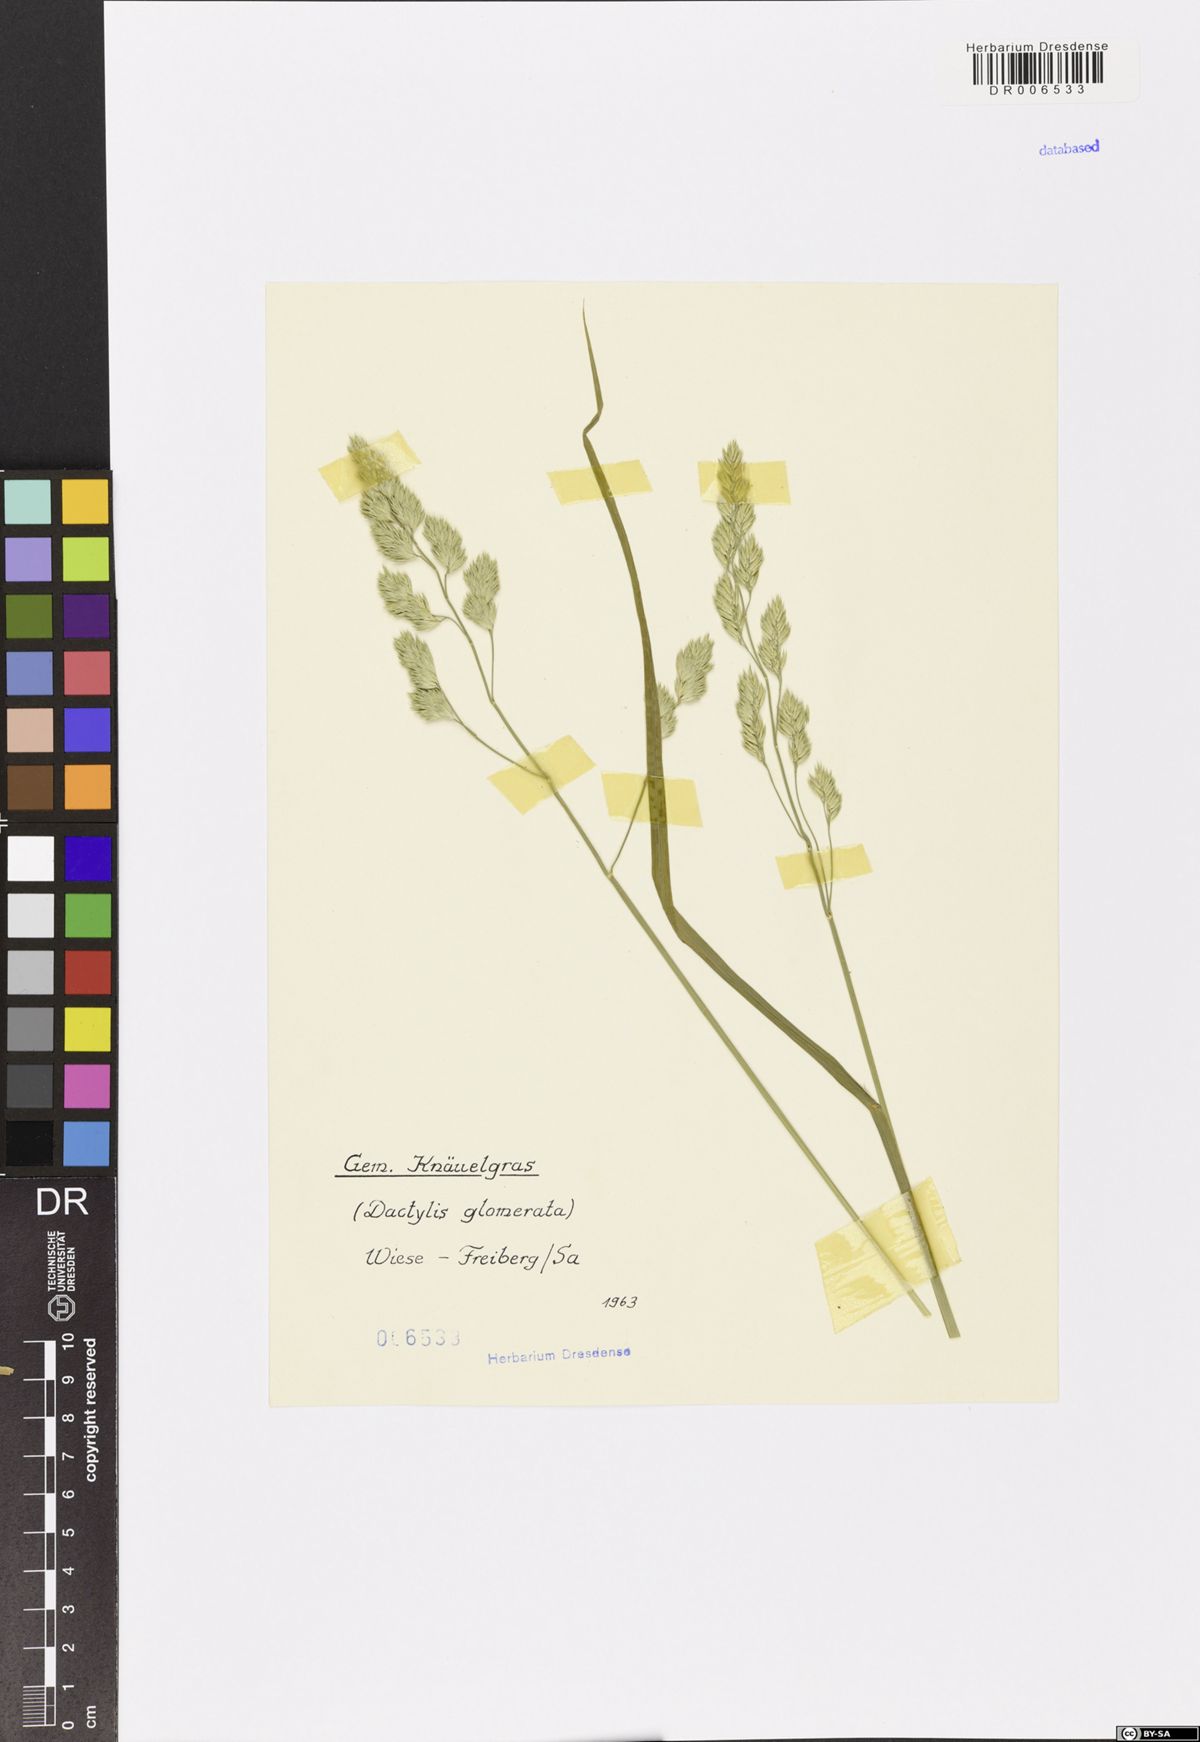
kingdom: Plantae
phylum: Tracheophyta
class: Liliopsida
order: Poales
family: Poaceae
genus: Dactylis
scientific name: Dactylis glomerata
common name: Orchardgrass
